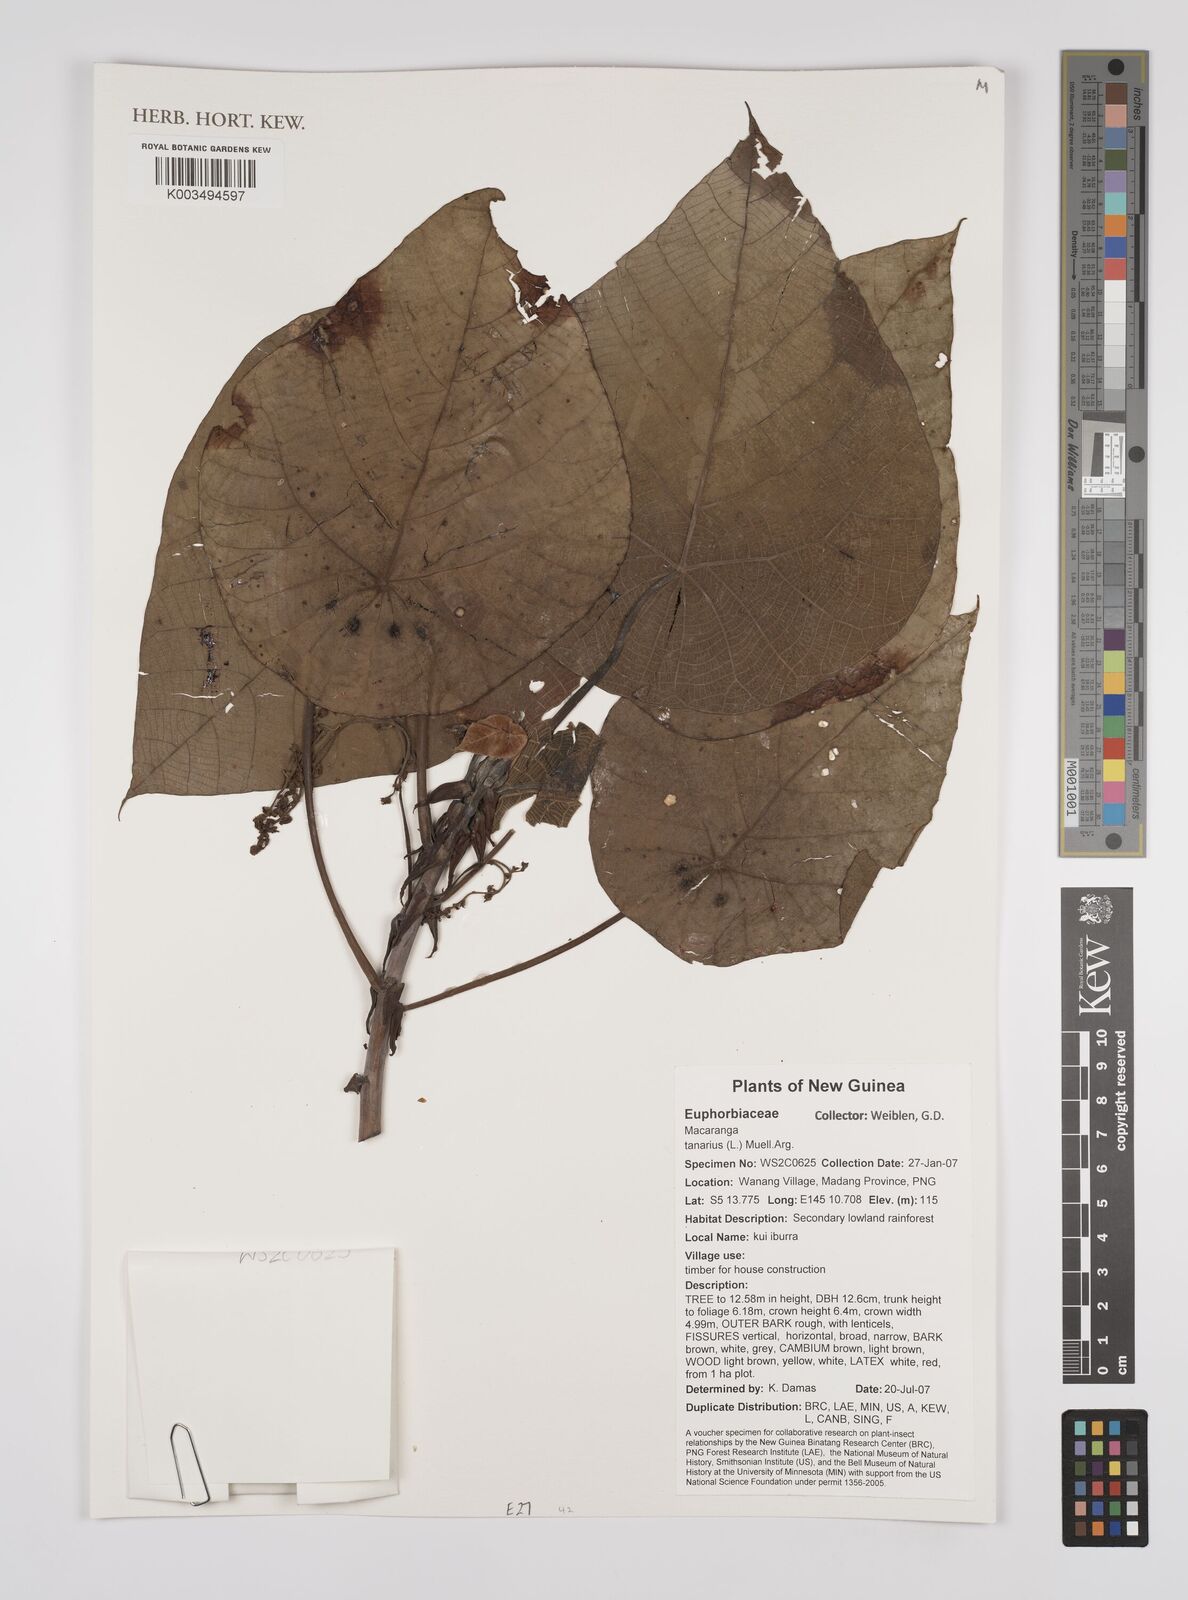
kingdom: Plantae
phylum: Tracheophyta
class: Magnoliopsida
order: Malpighiales
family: Euphorbiaceae
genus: Macaranga
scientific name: Macaranga tanarius
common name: Parasol leaf tree
